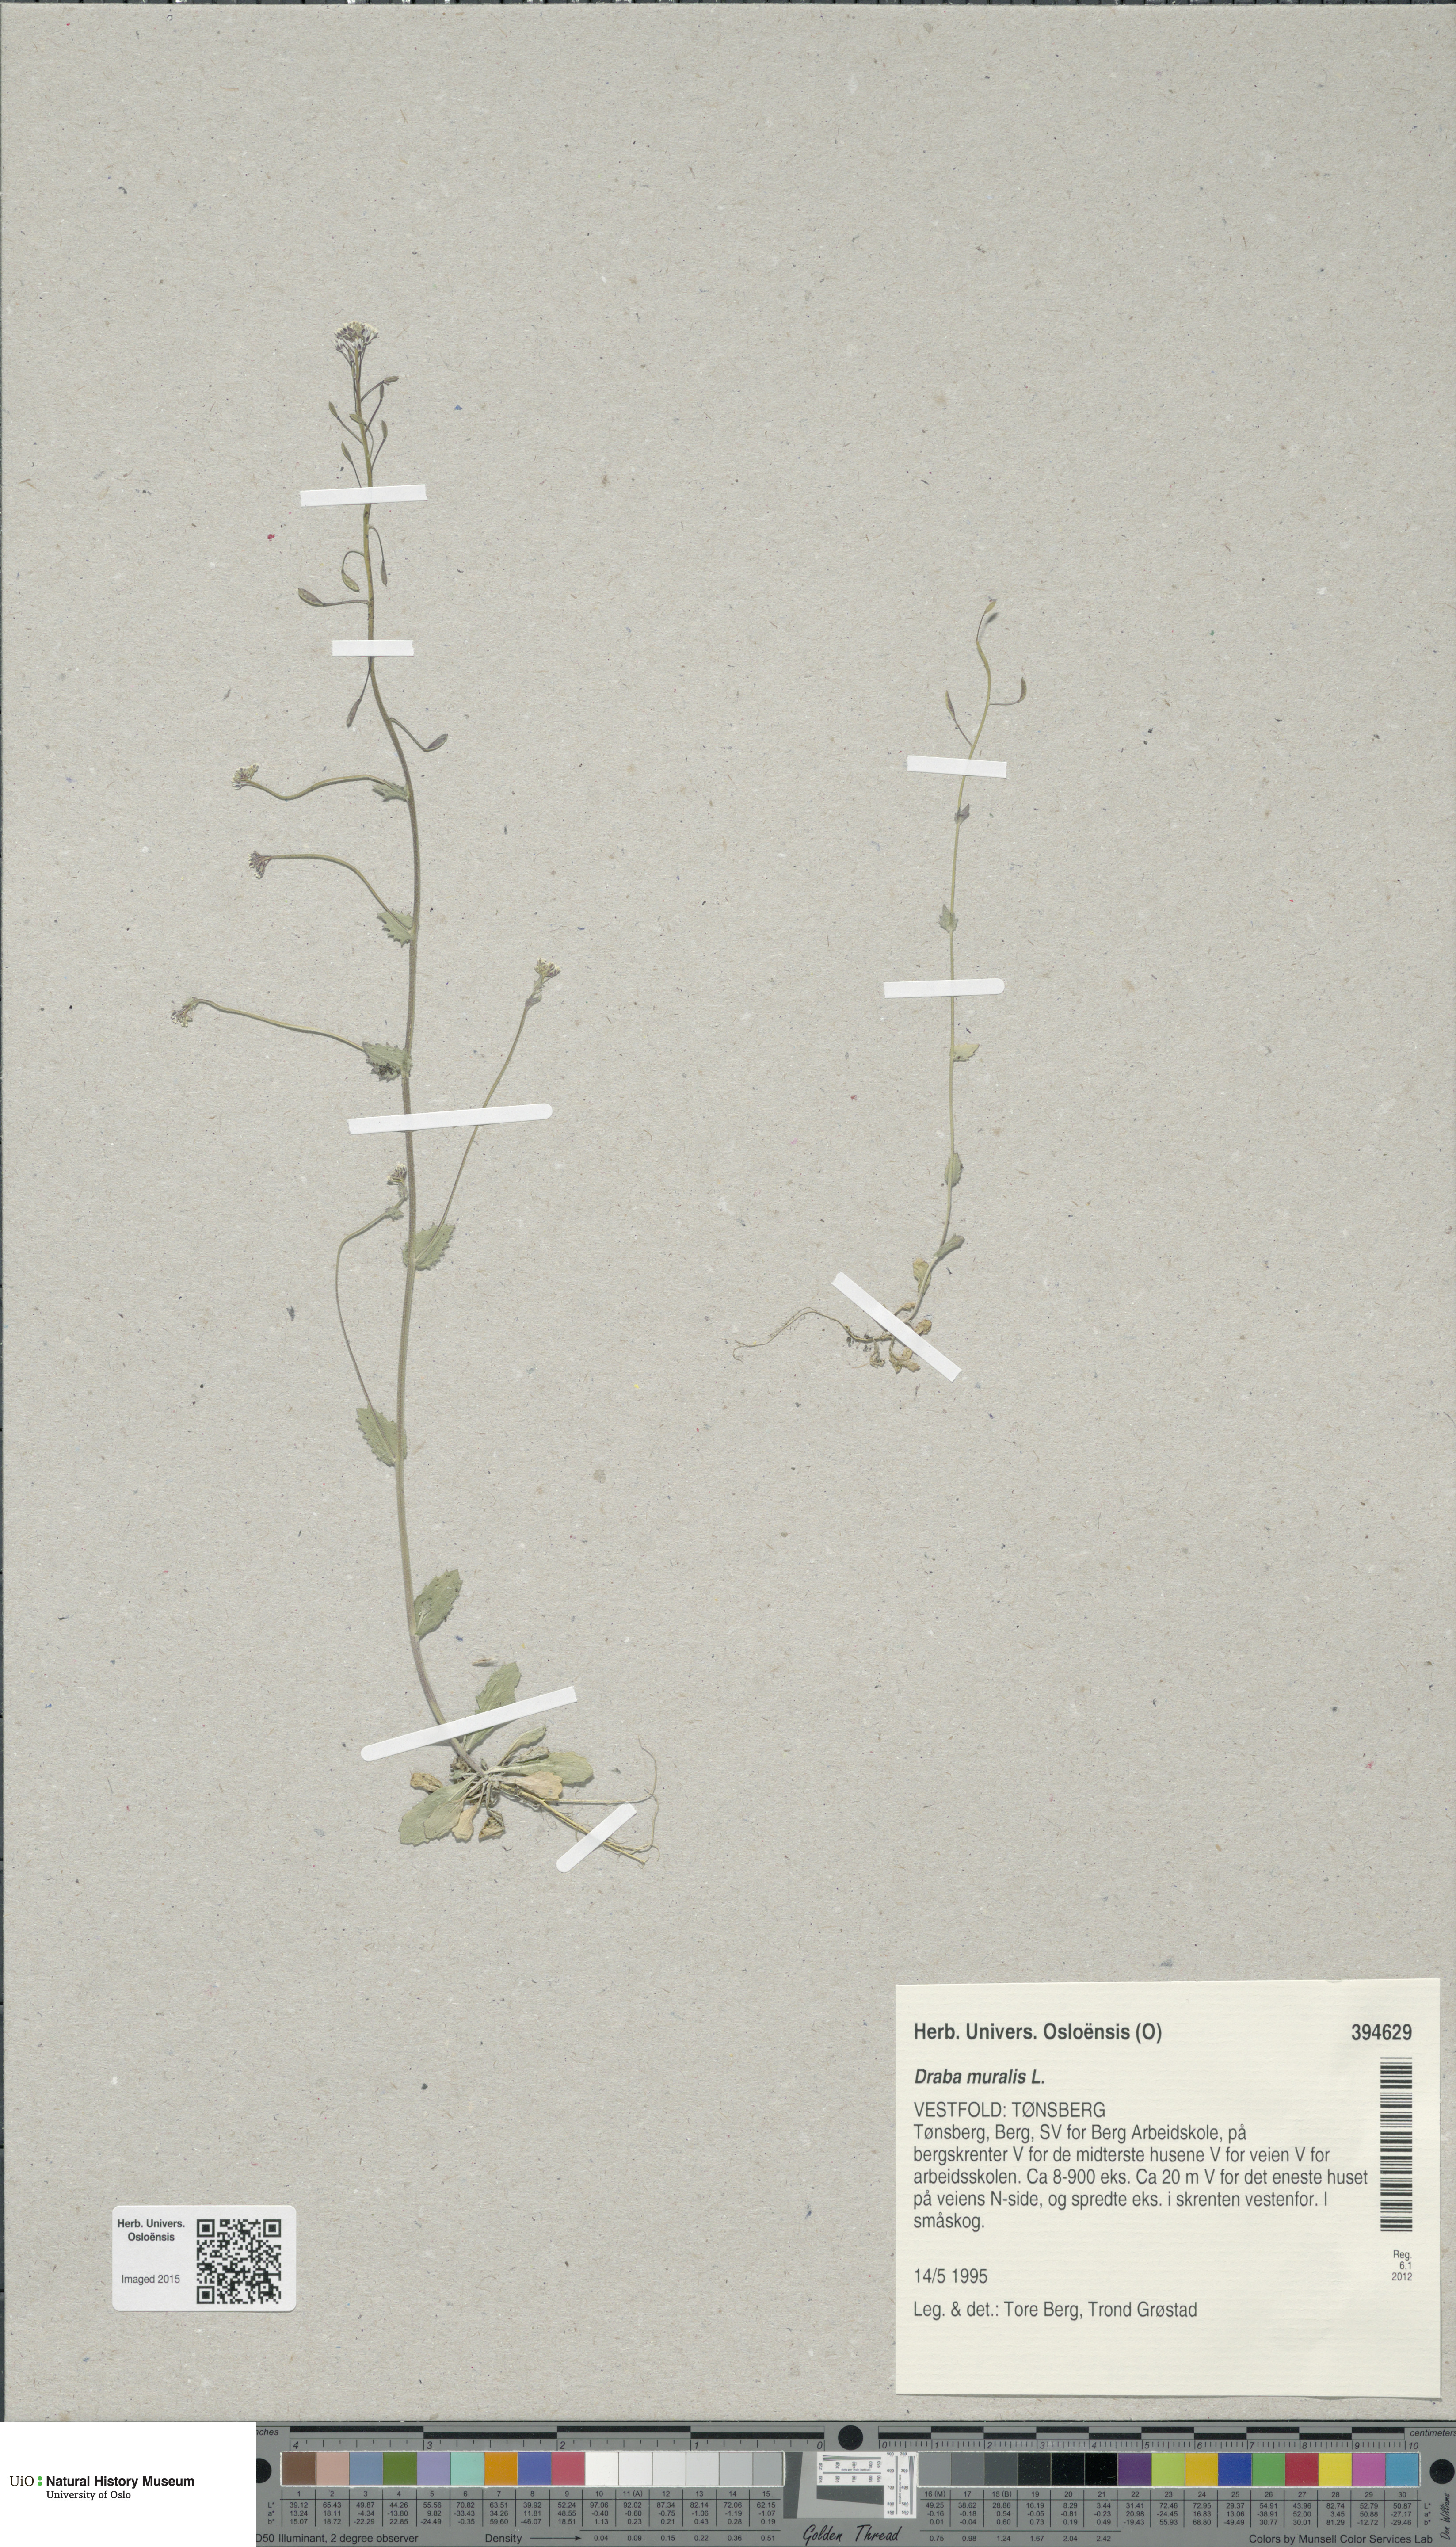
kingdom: Plantae
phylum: Tracheophyta
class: Magnoliopsida
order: Brassicales
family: Brassicaceae
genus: Drabella
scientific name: Drabella muralis
